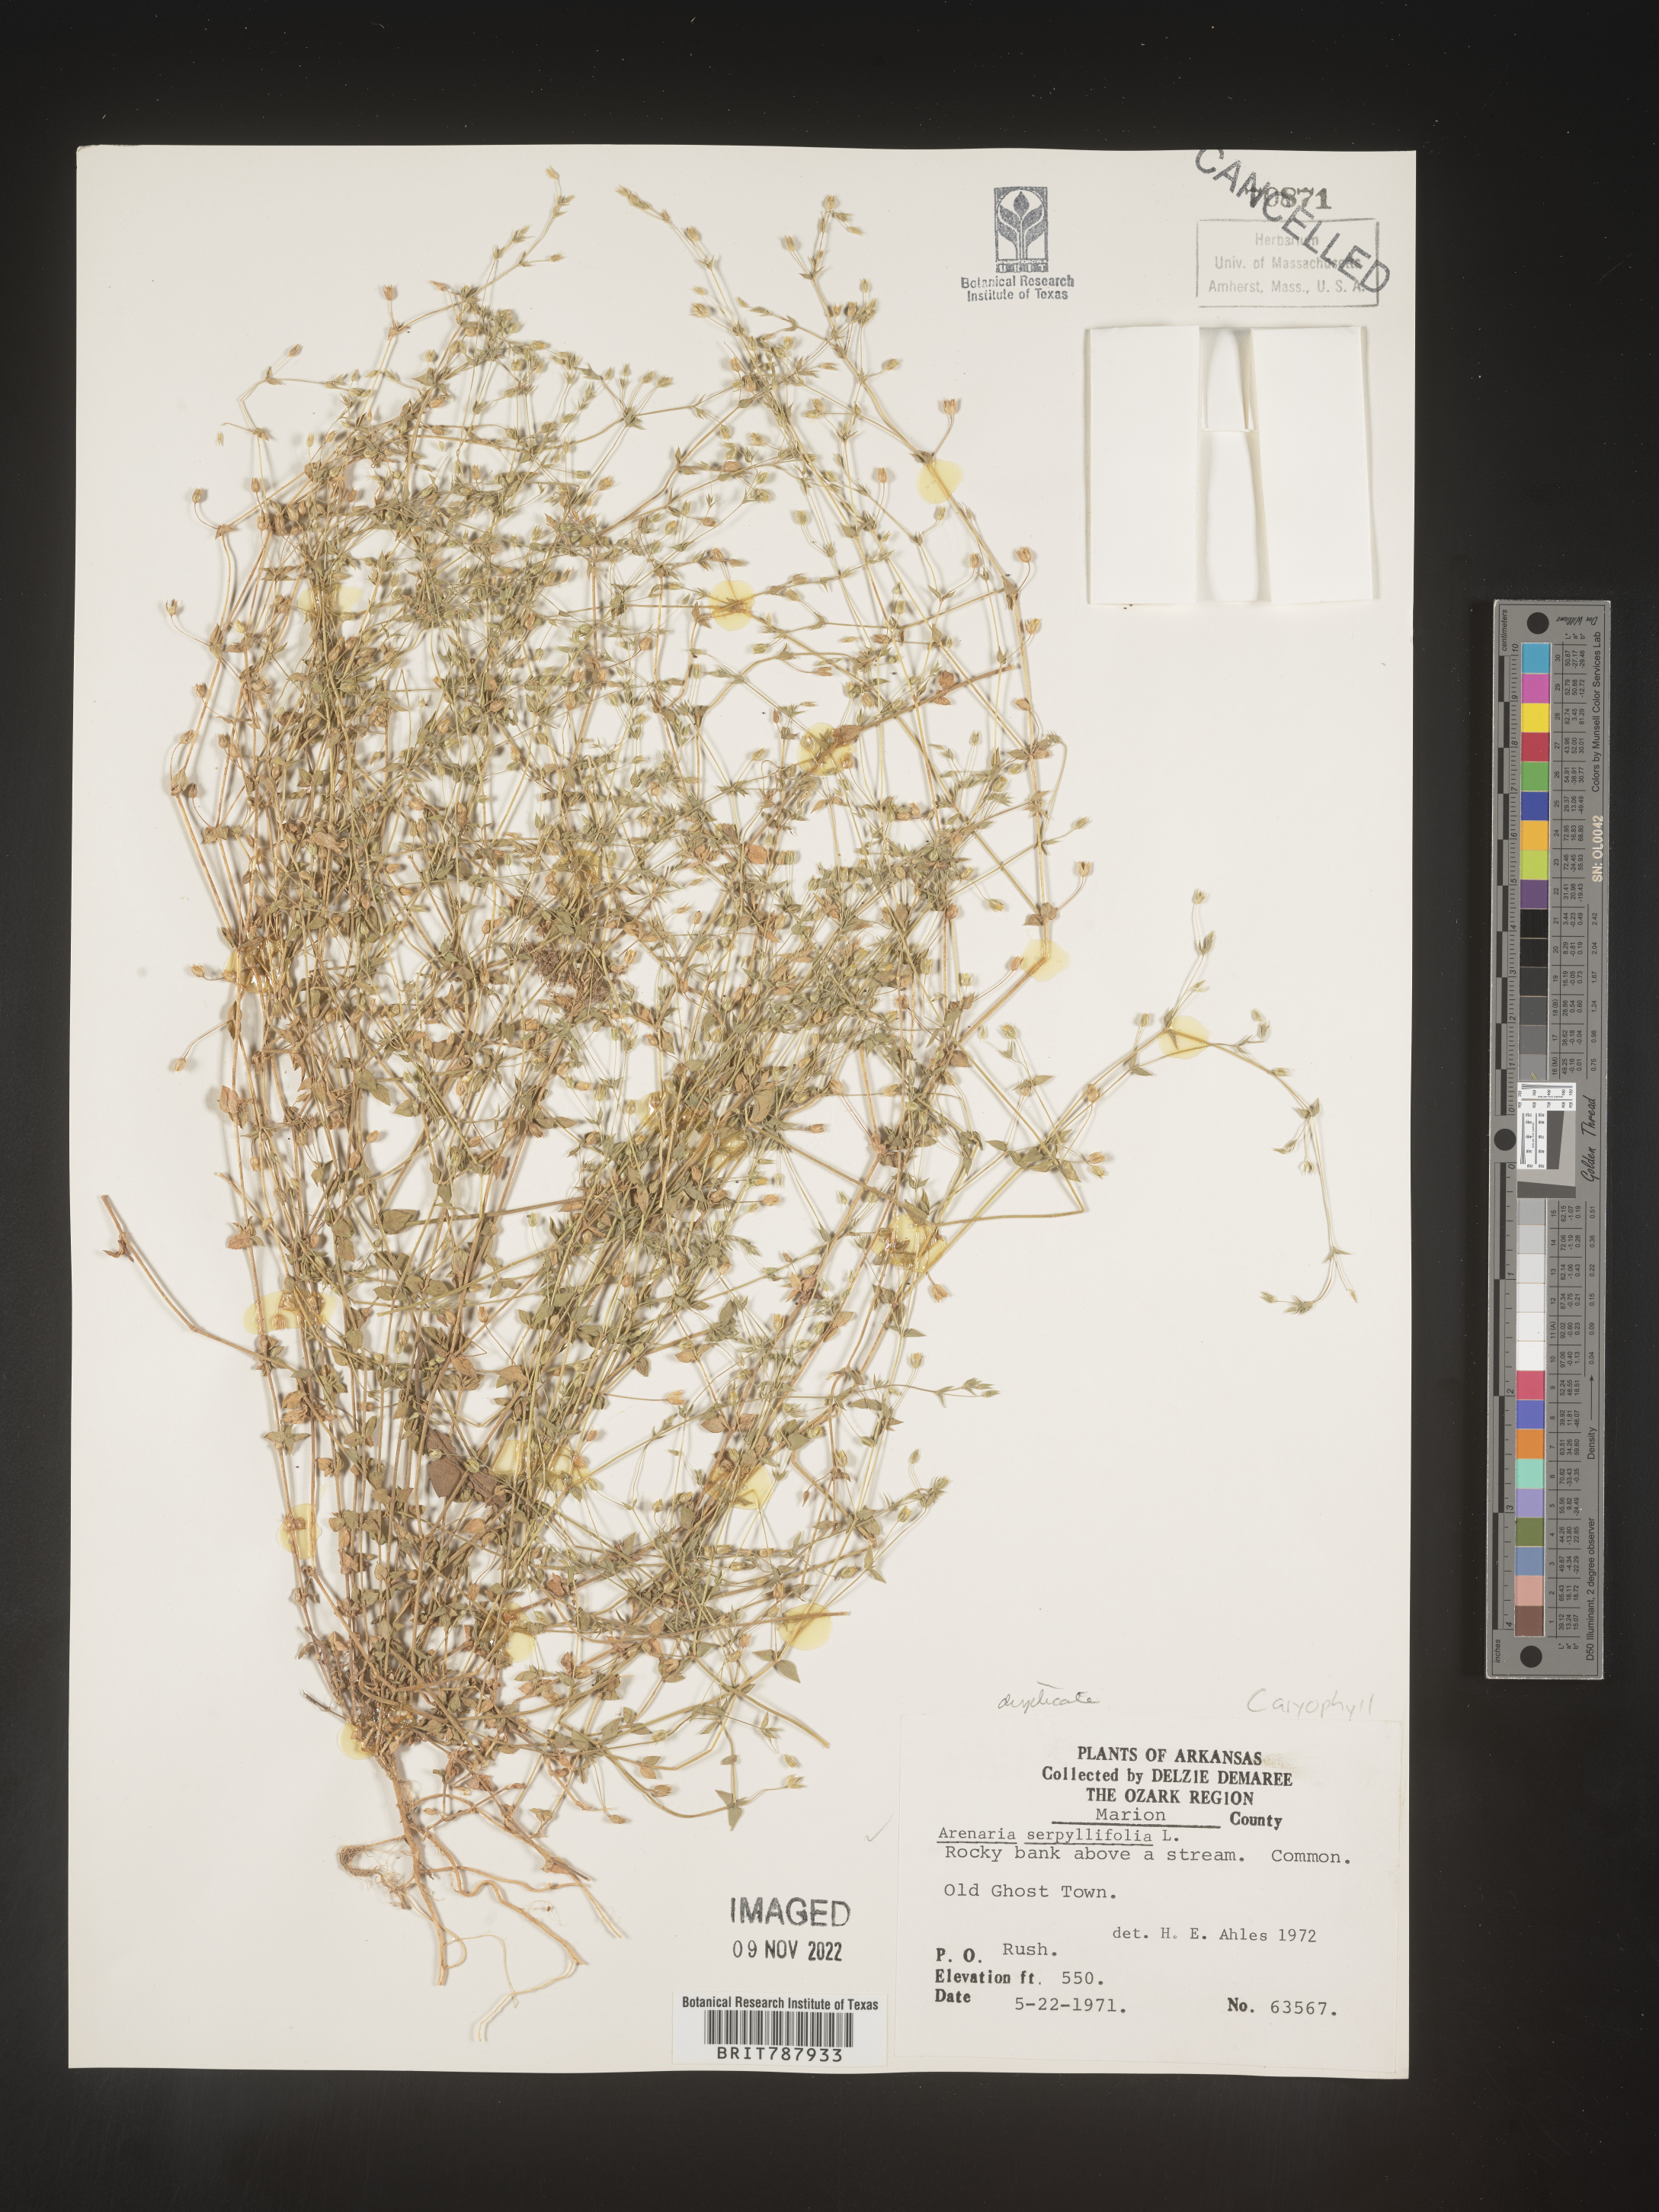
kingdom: Plantae
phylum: Tracheophyta
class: Magnoliopsida
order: Caryophyllales
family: Caryophyllaceae
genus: Arenaria
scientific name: Arenaria serpyllifolia
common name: Thyme-leaved sandwort
